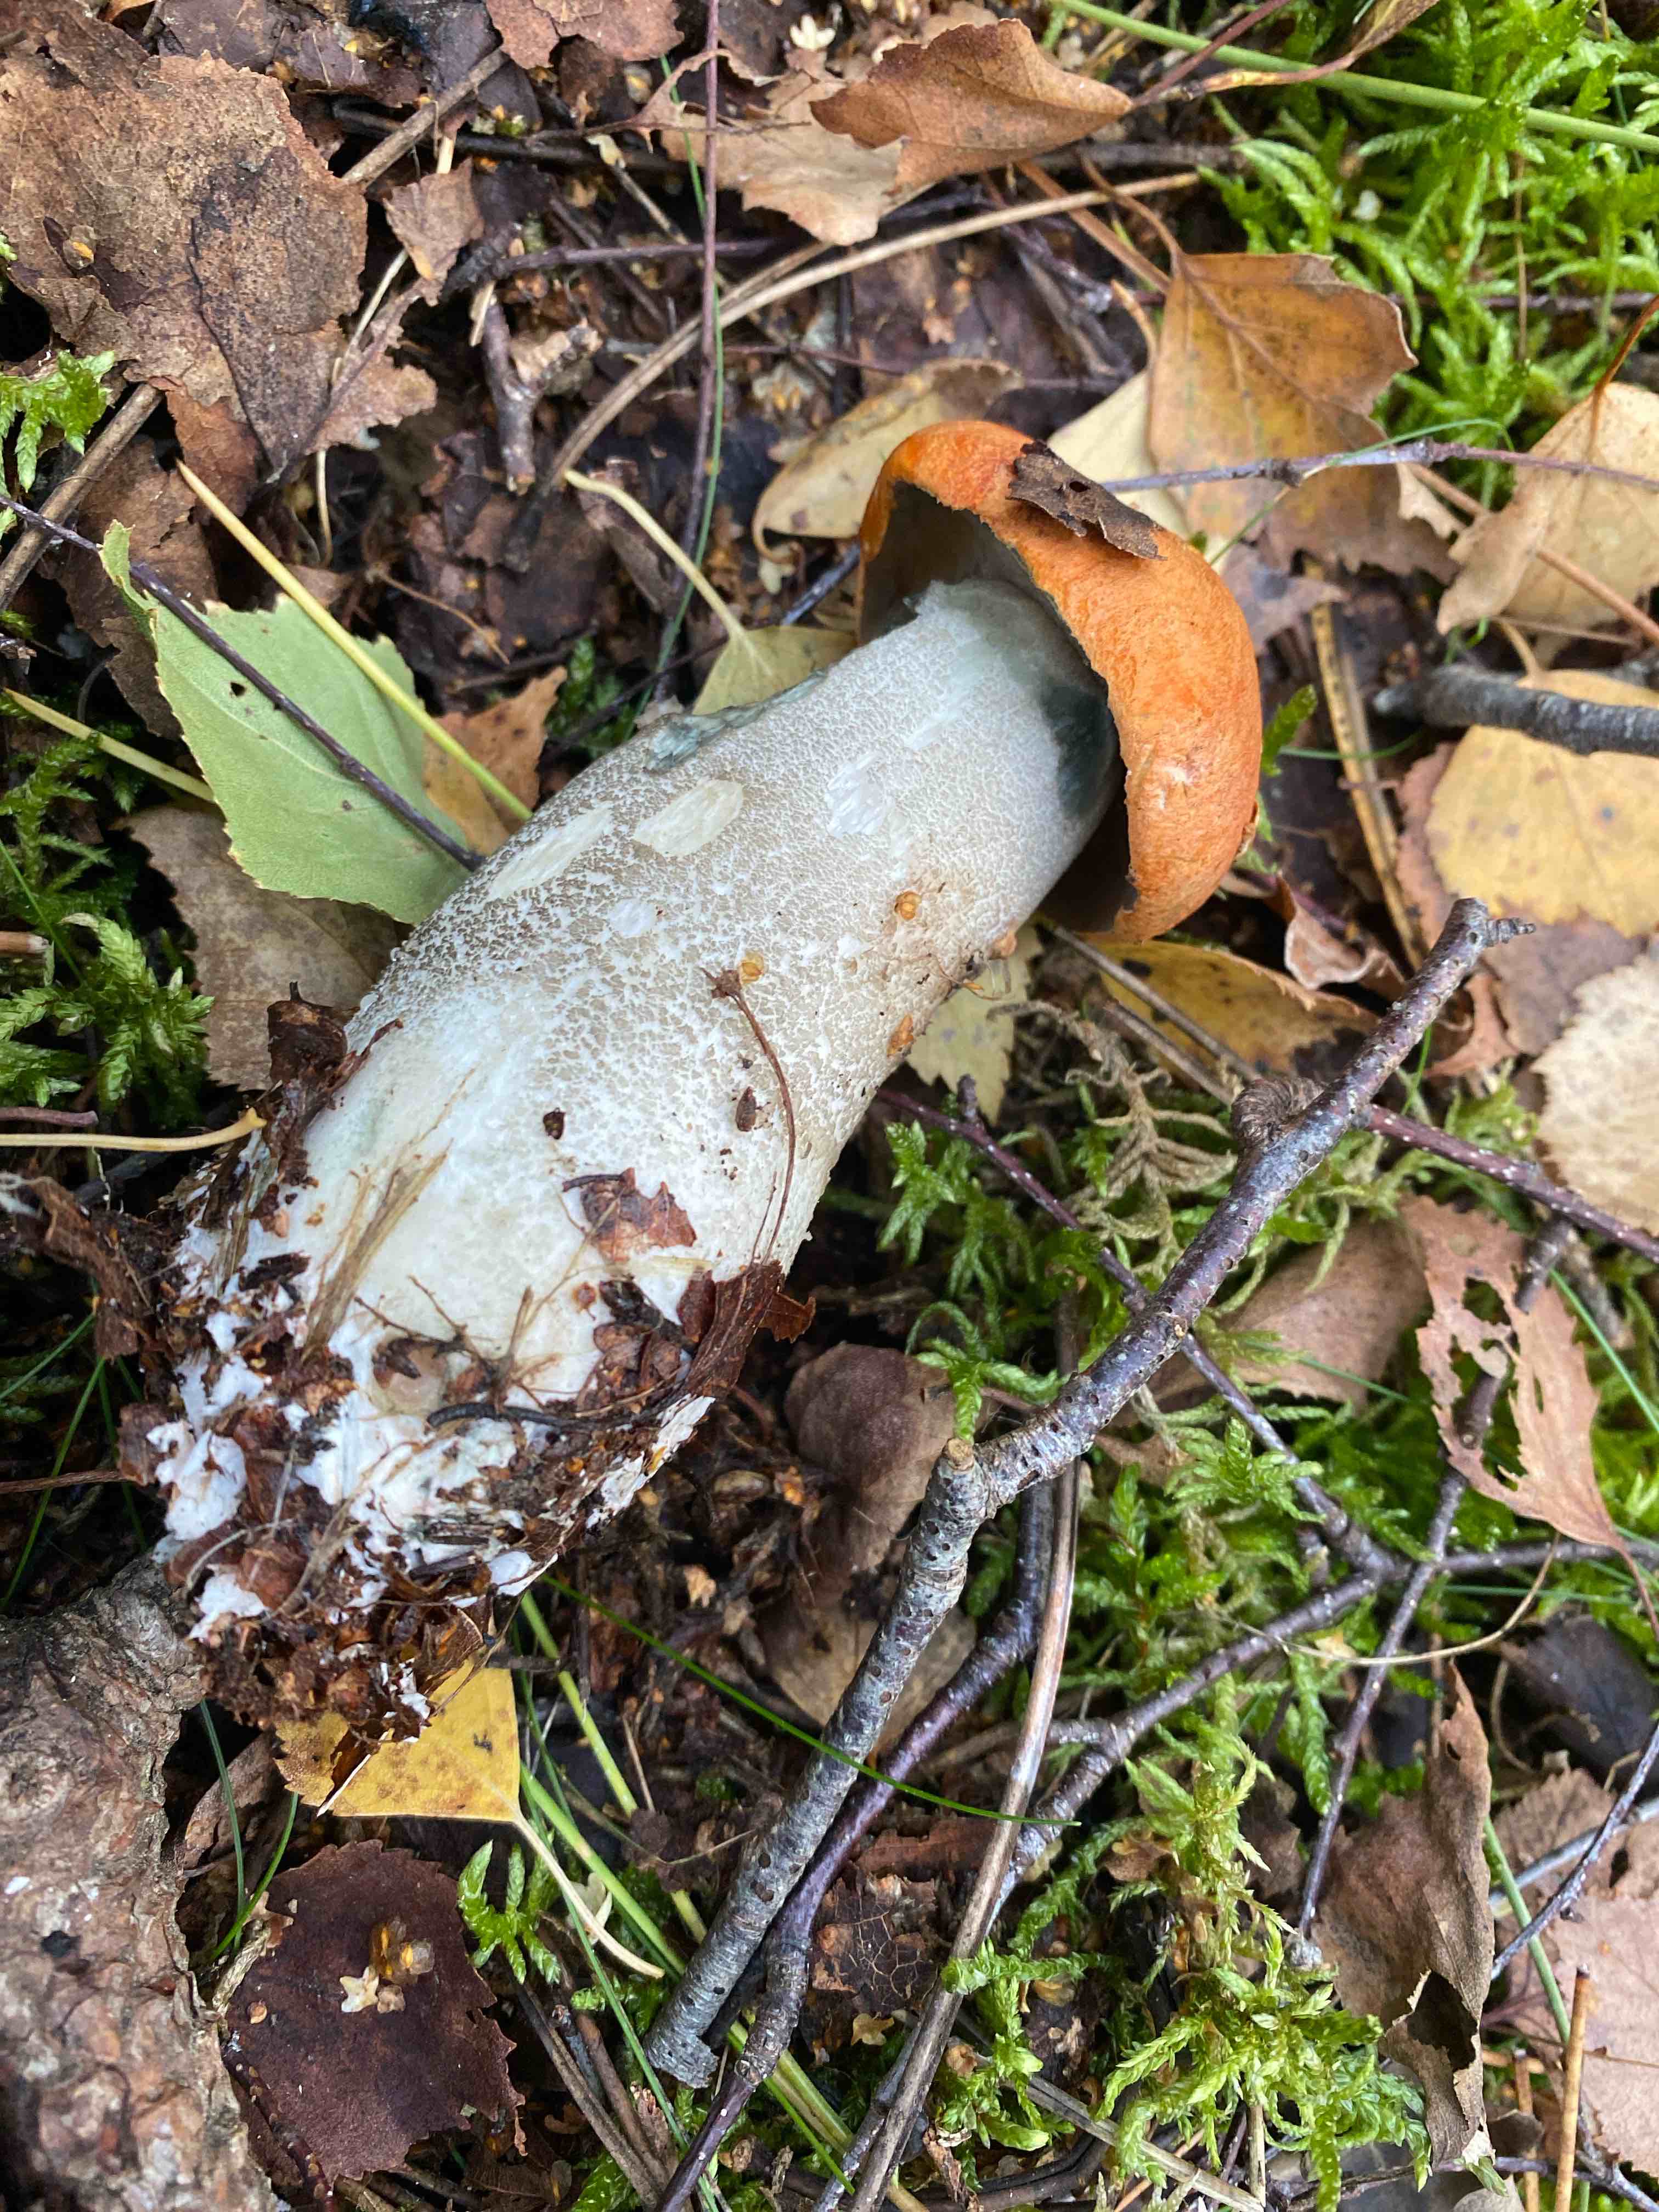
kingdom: Fungi
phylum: Basidiomycota
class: Agaricomycetes
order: Boletales
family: Boletaceae
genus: Leccinum
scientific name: Leccinum versipelle
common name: orange skælrørhat
